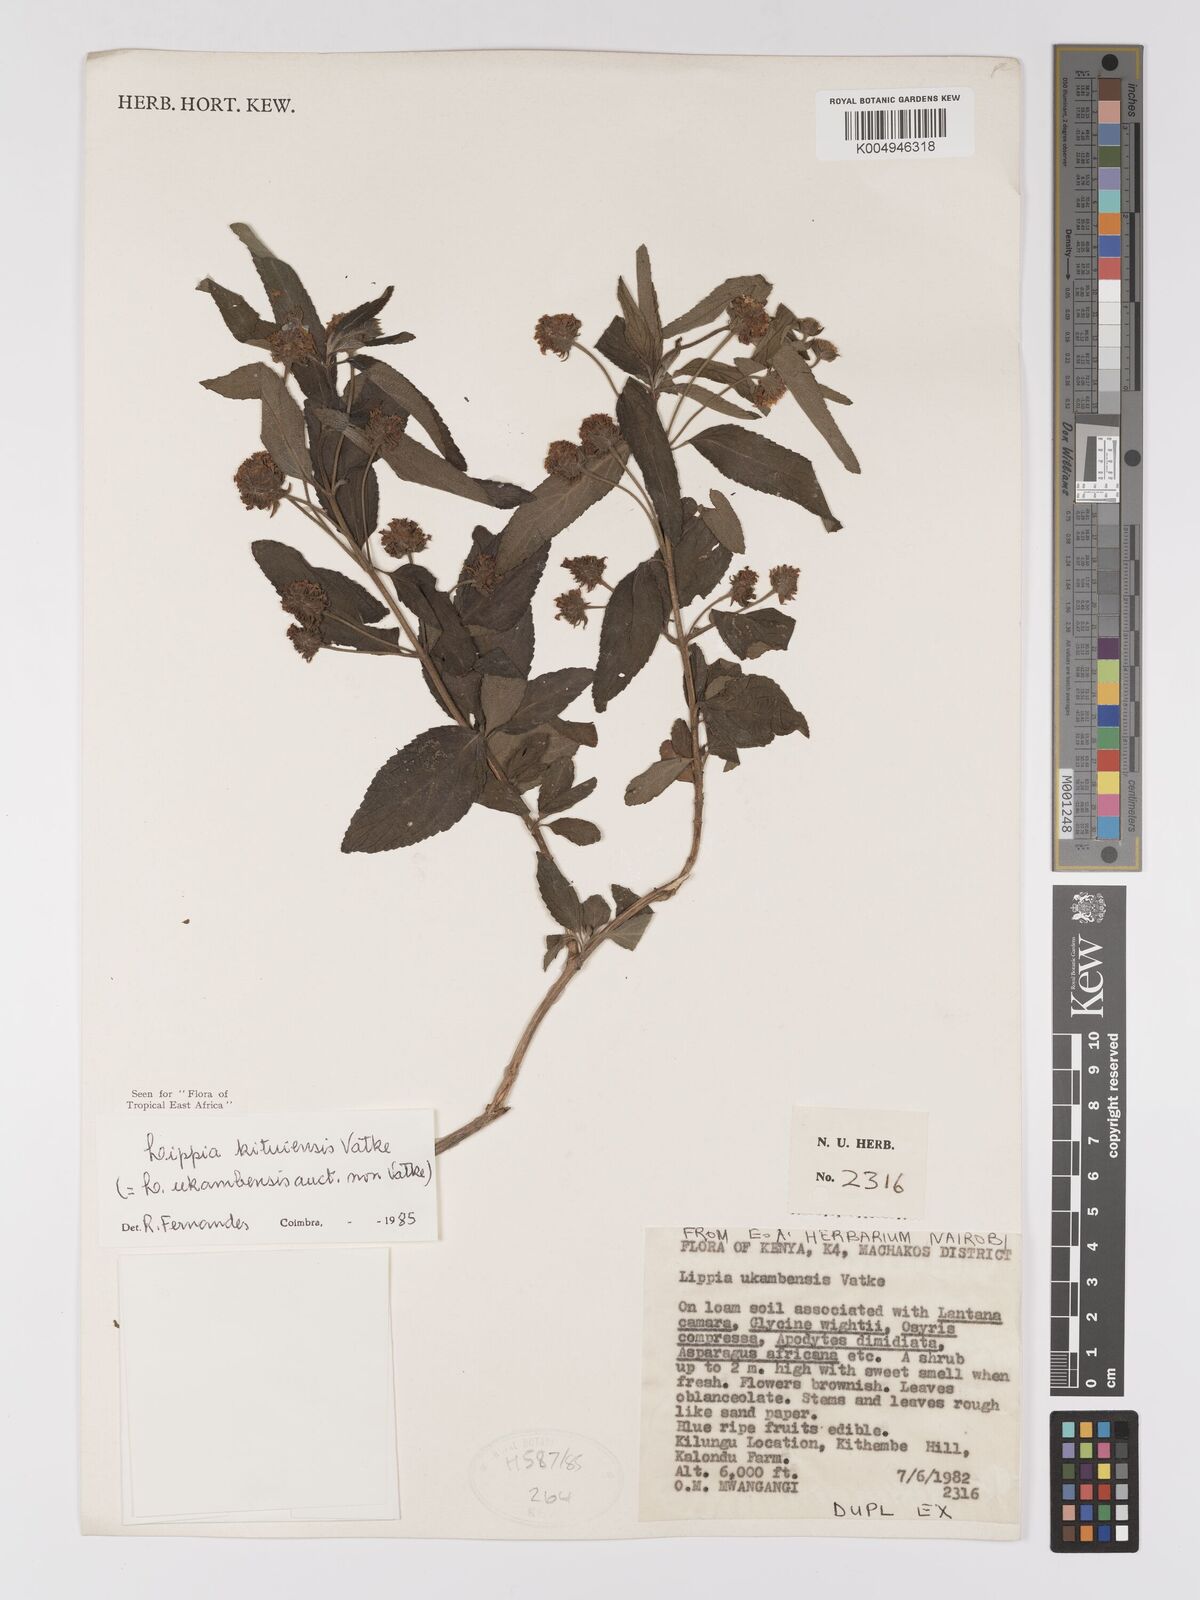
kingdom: Plantae
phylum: Tracheophyta
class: Magnoliopsida
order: Lamiales
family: Verbenaceae
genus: Lippia
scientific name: Lippia kituiensis
